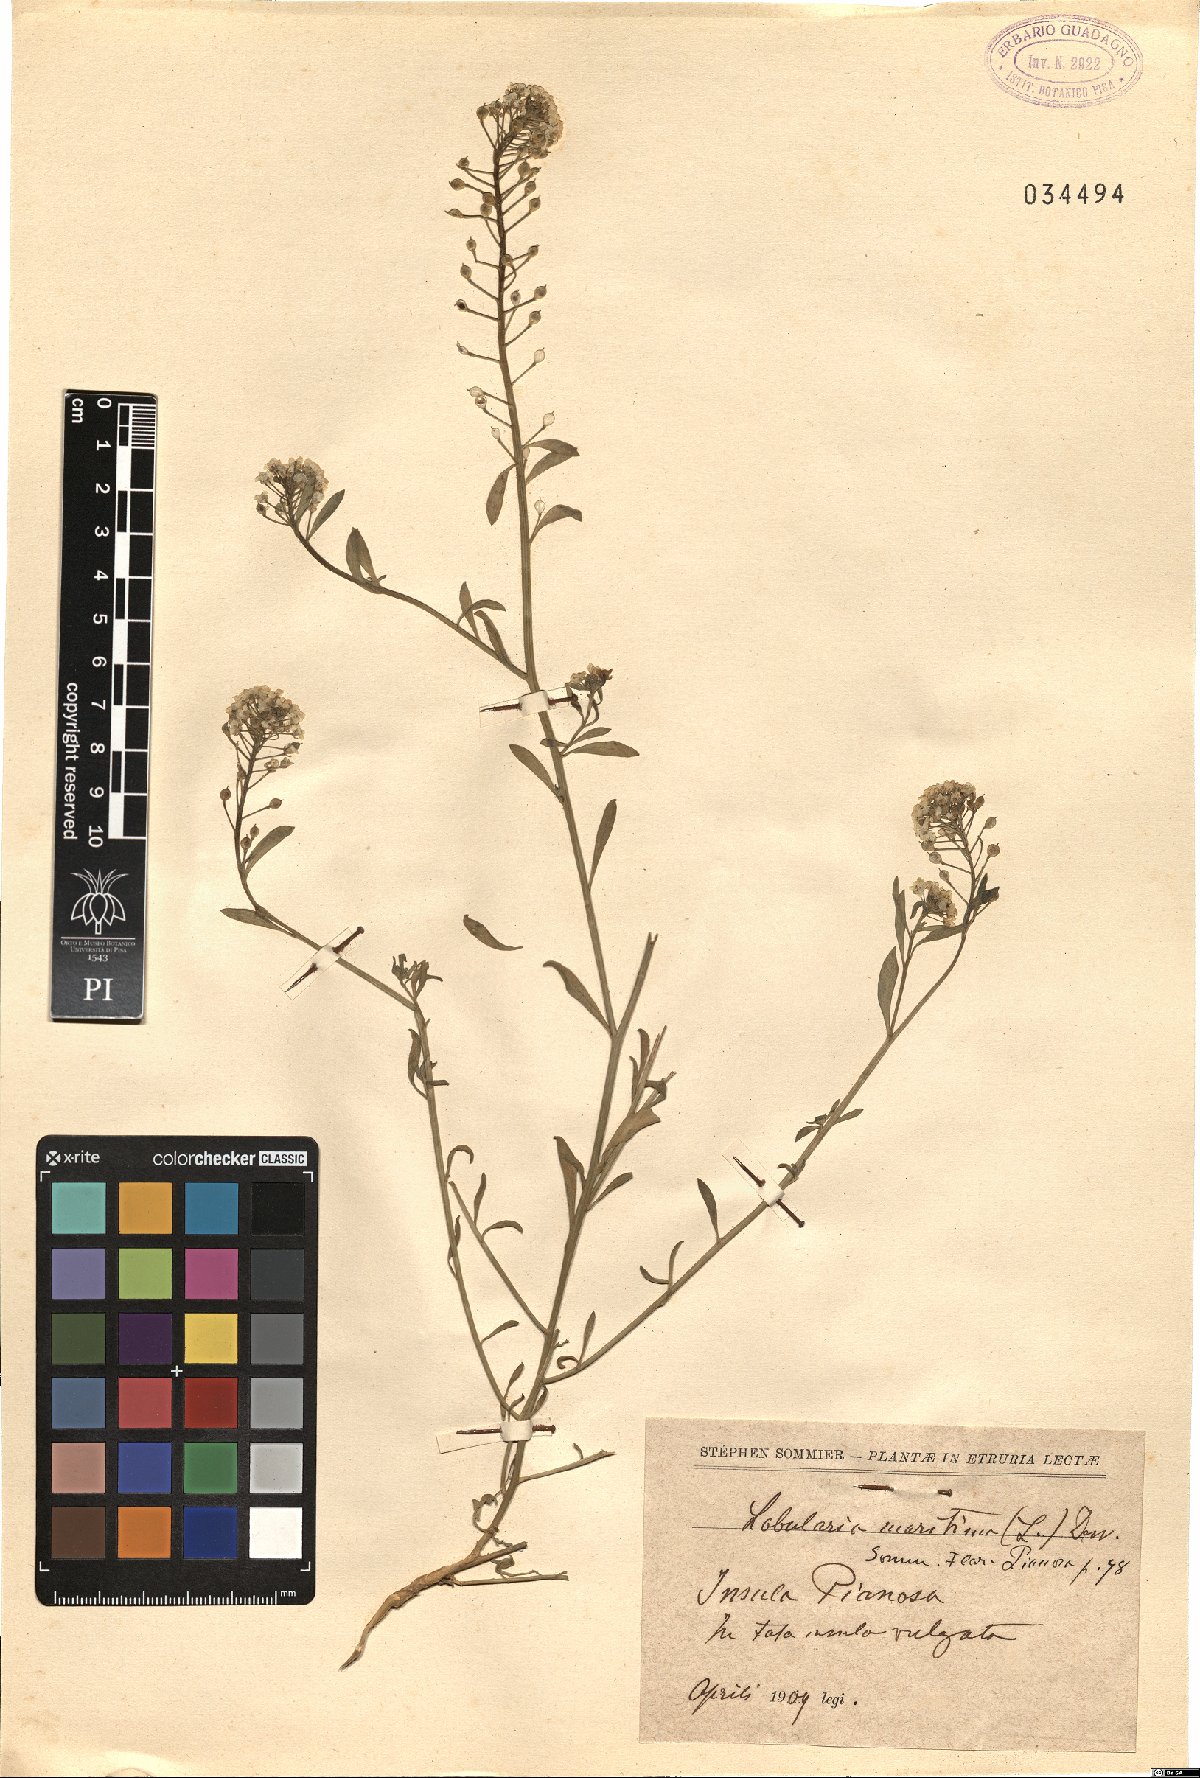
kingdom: Plantae
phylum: Tracheophyta
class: Magnoliopsida
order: Brassicales
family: Brassicaceae
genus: Lobularia
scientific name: Lobularia maritima
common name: Sweet alison
